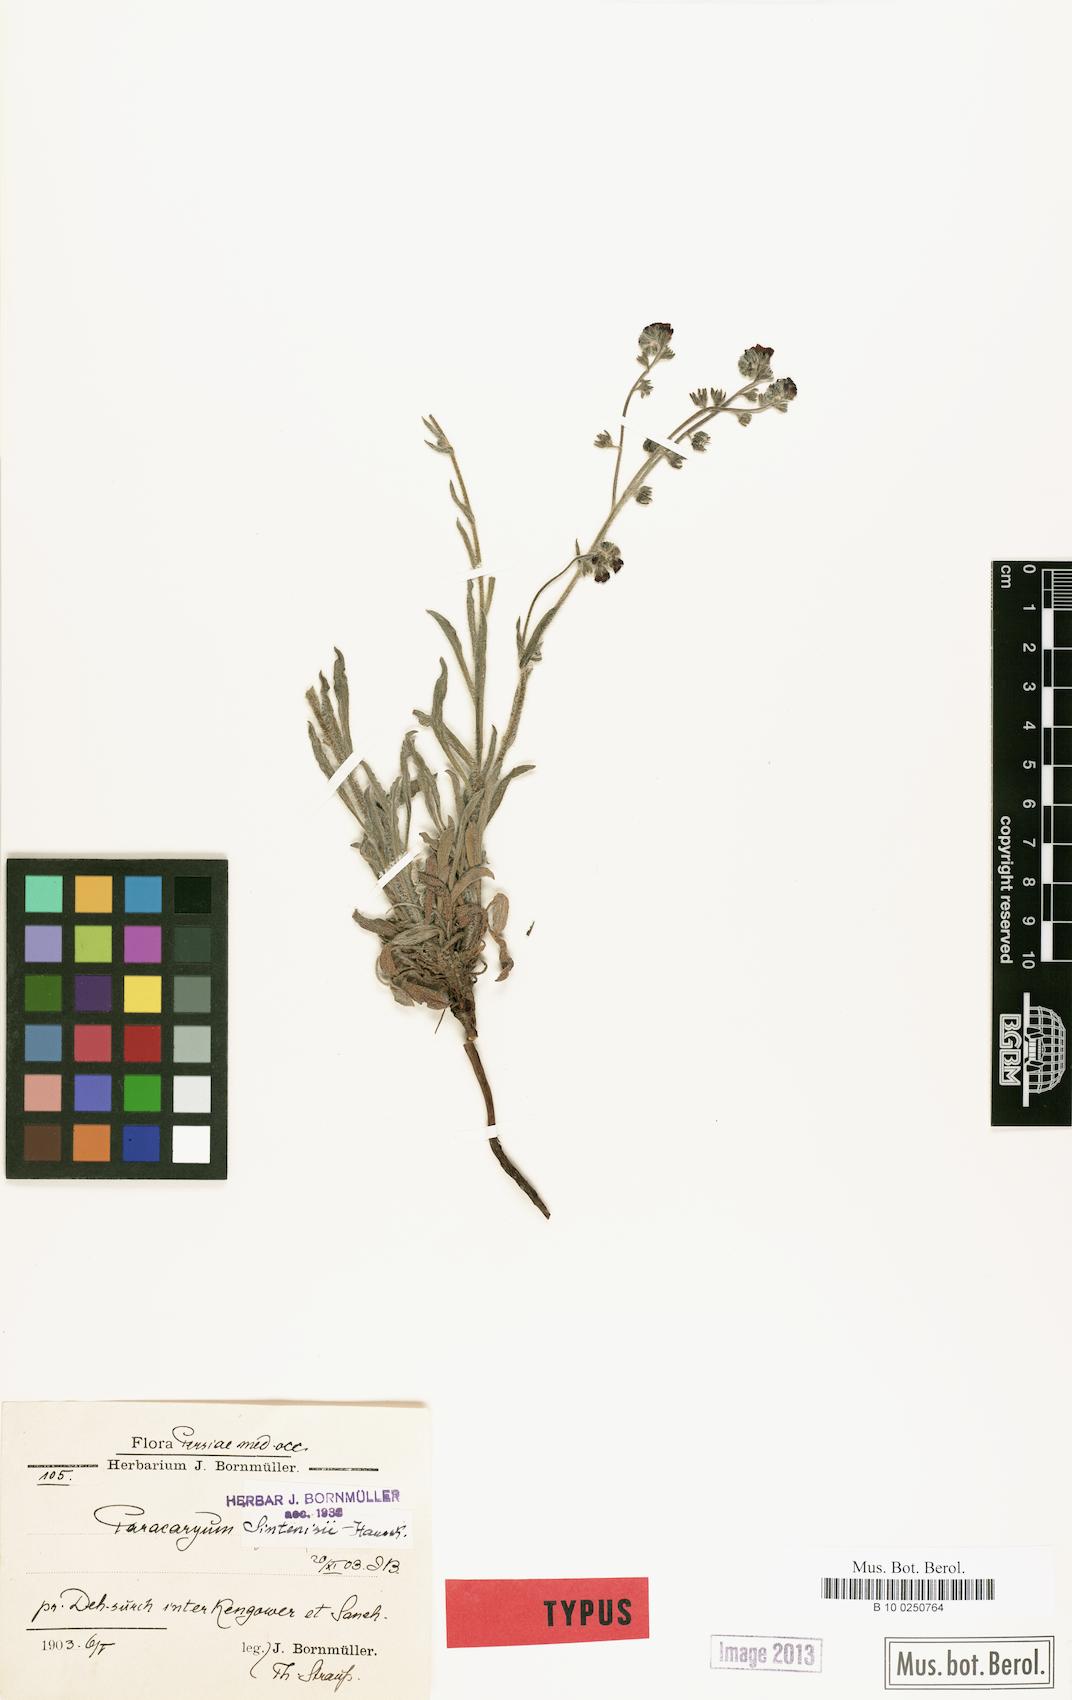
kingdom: Plantae
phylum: Tracheophyta
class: Magnoliopsida
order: Boraginales
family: Boraginaceae
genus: Paracaryum
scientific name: Paracaryum sintenisii
